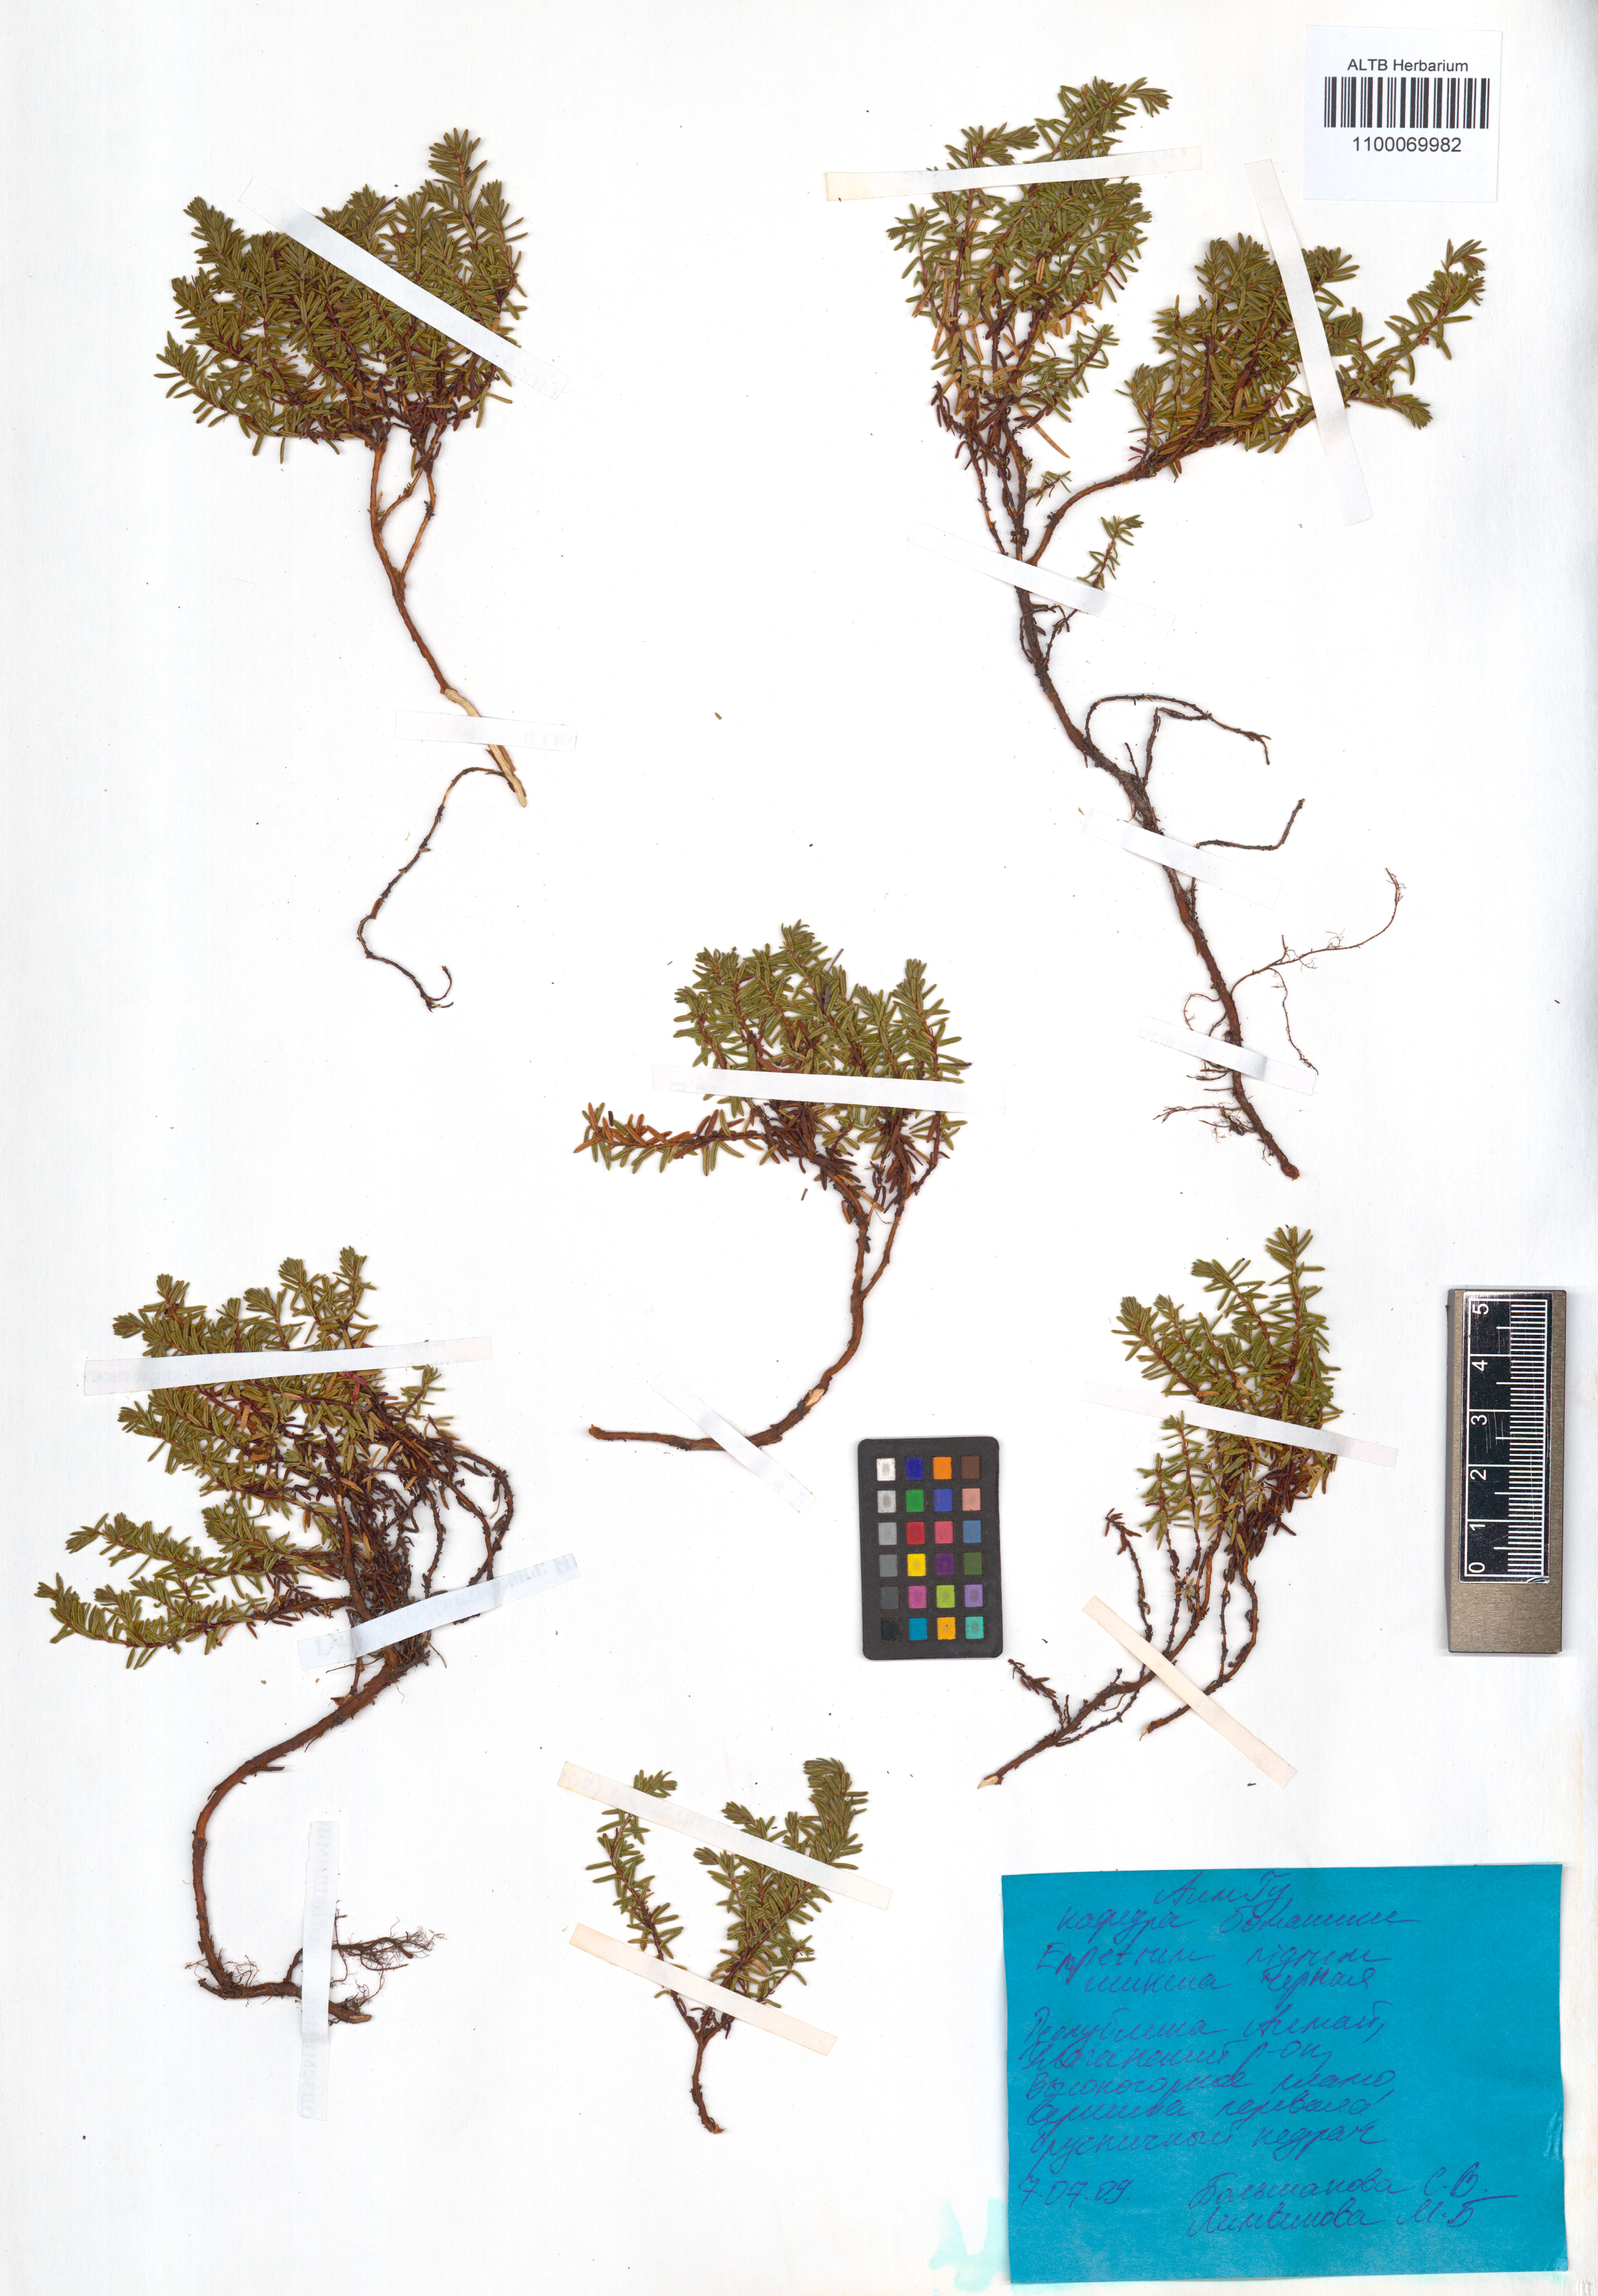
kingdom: Plantae
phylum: Tracheophyta
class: Magnoliopsida
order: Ericales
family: Ericaceae
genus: Empetrum
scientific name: Empetrum nigrum
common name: Black crowberry
